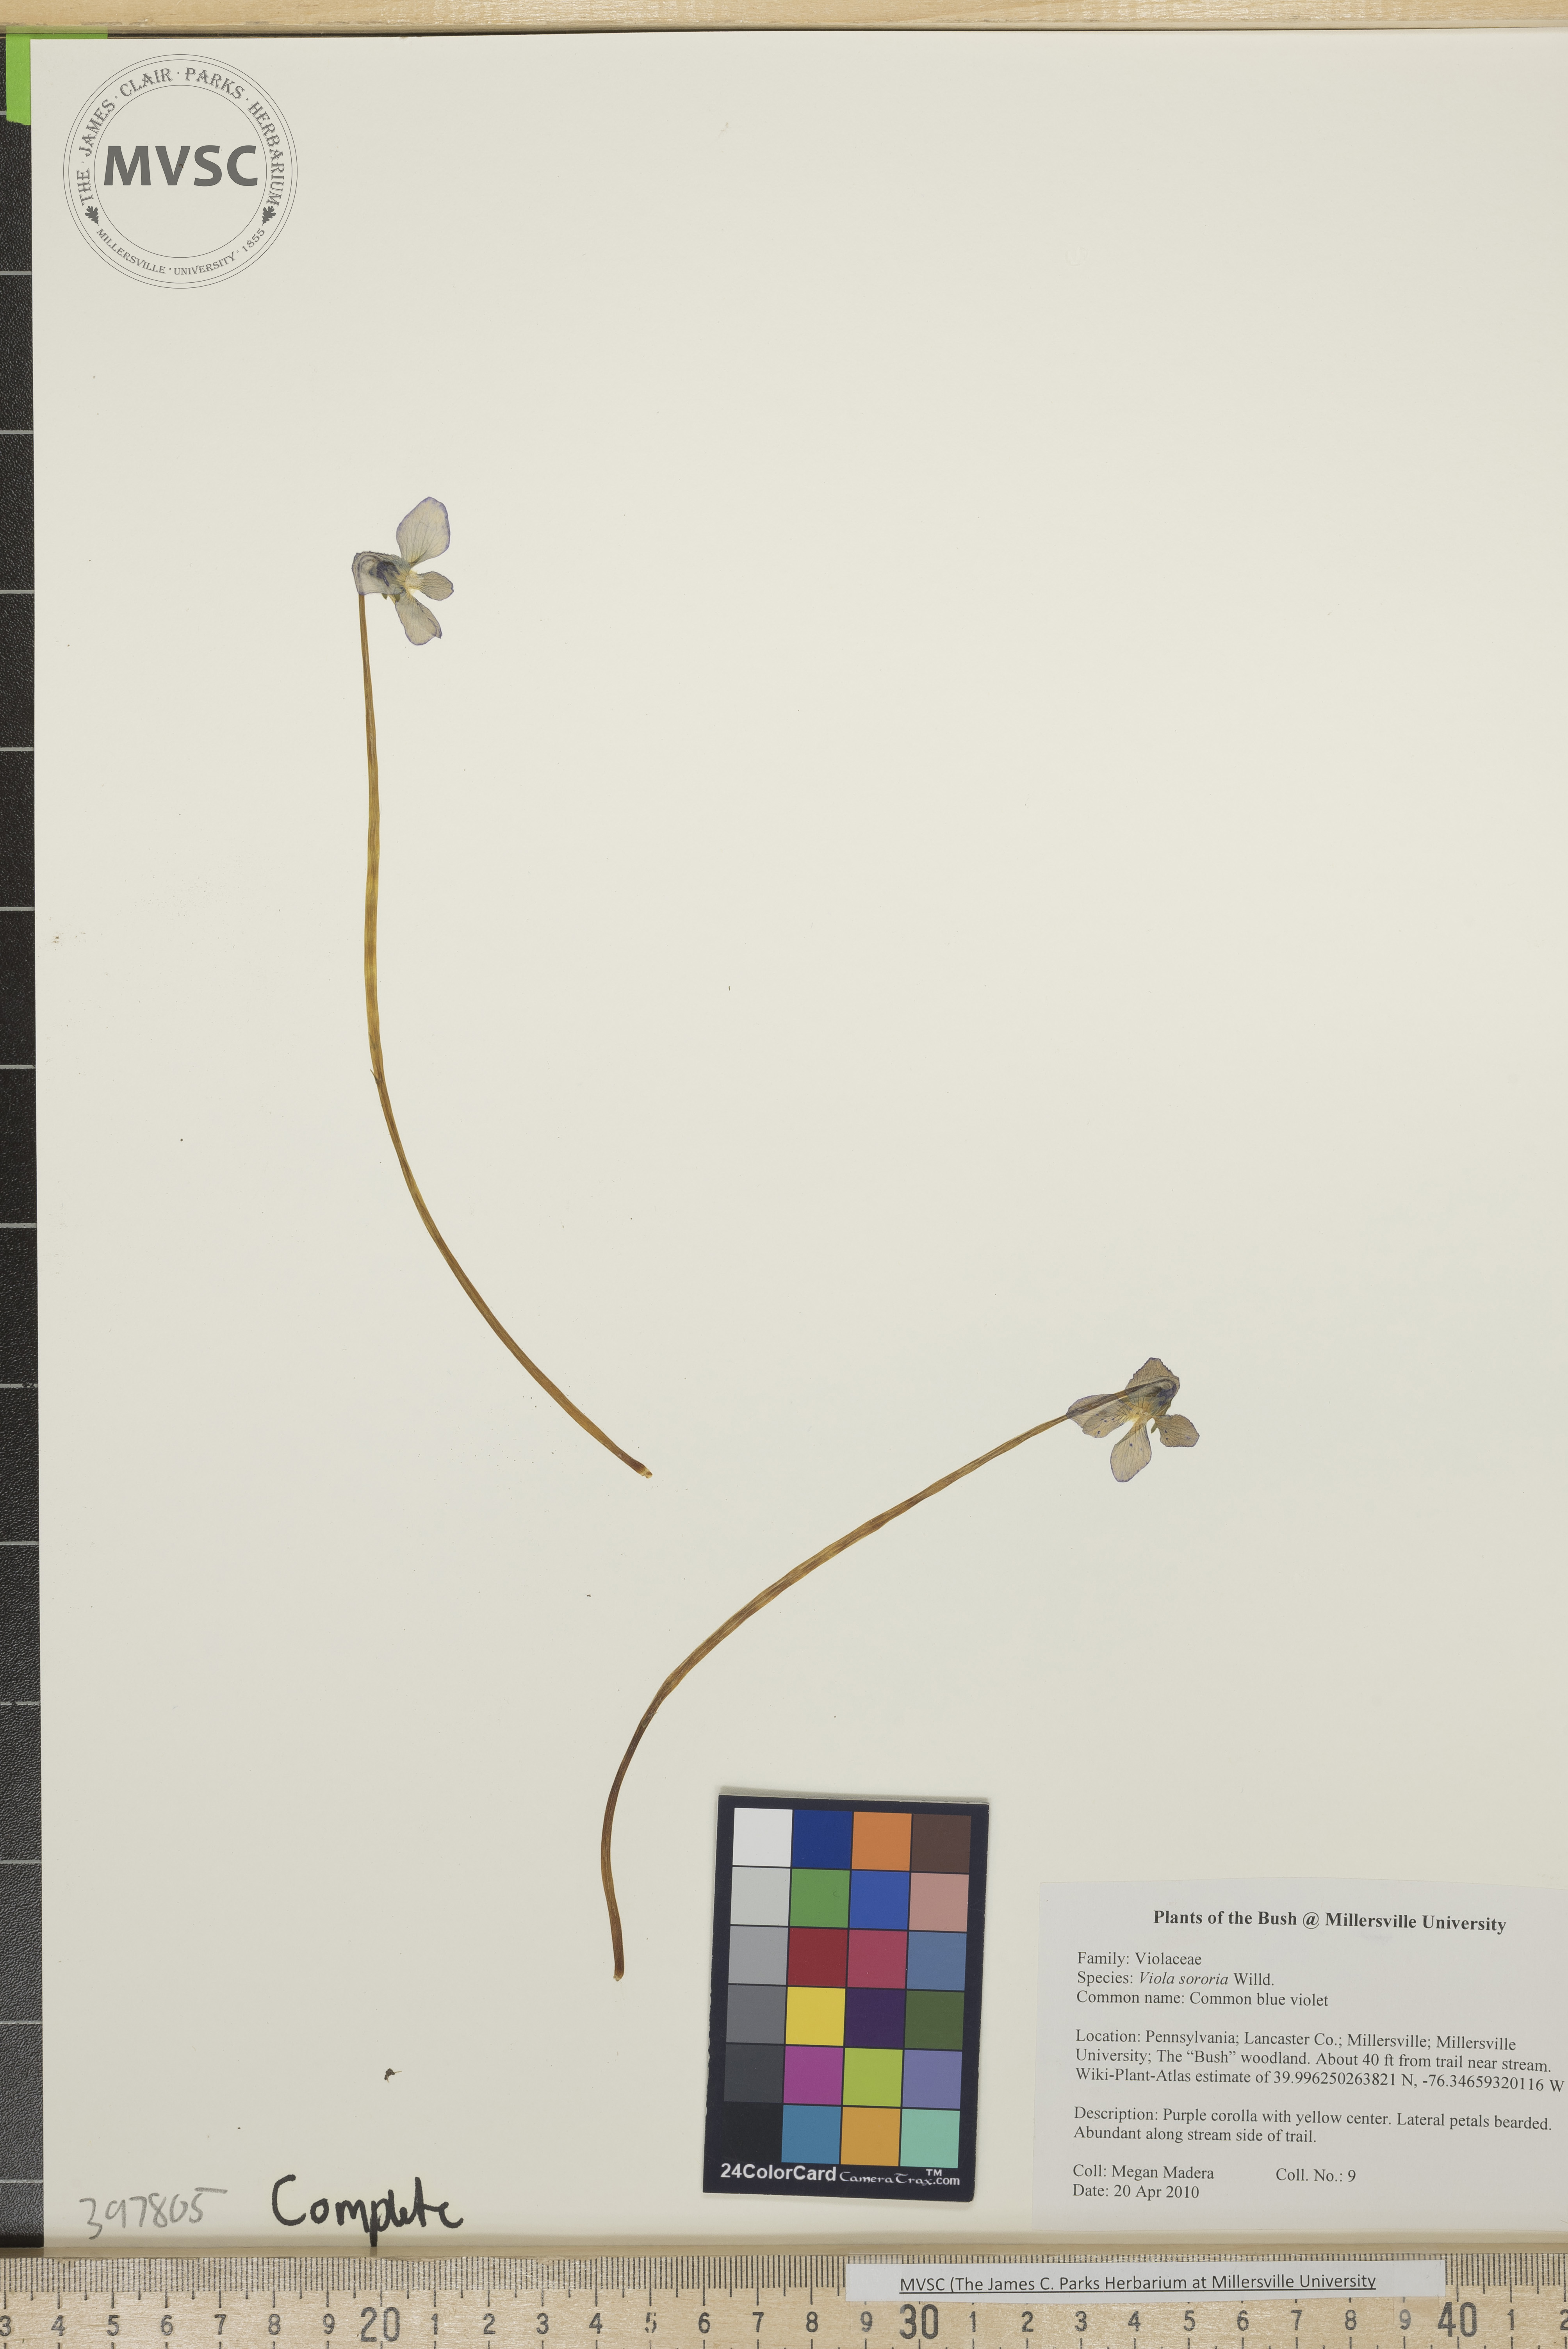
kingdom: Plantae
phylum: Tracheophyta
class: Magnoliopsida
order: Malpighiales
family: Violaceae
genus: Viola
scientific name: Viola sororia
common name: Common blue violet
